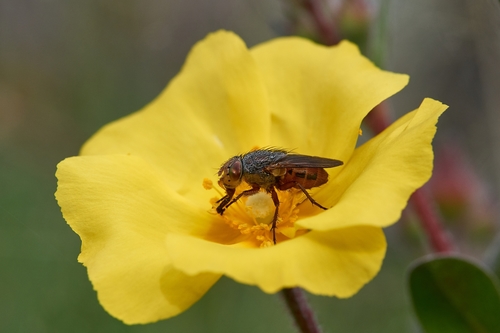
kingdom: Animalia
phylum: Arthropoda
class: Insecta
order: Diptera
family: Calliphoridae
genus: Rhyncomya
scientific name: Rhyncomya
